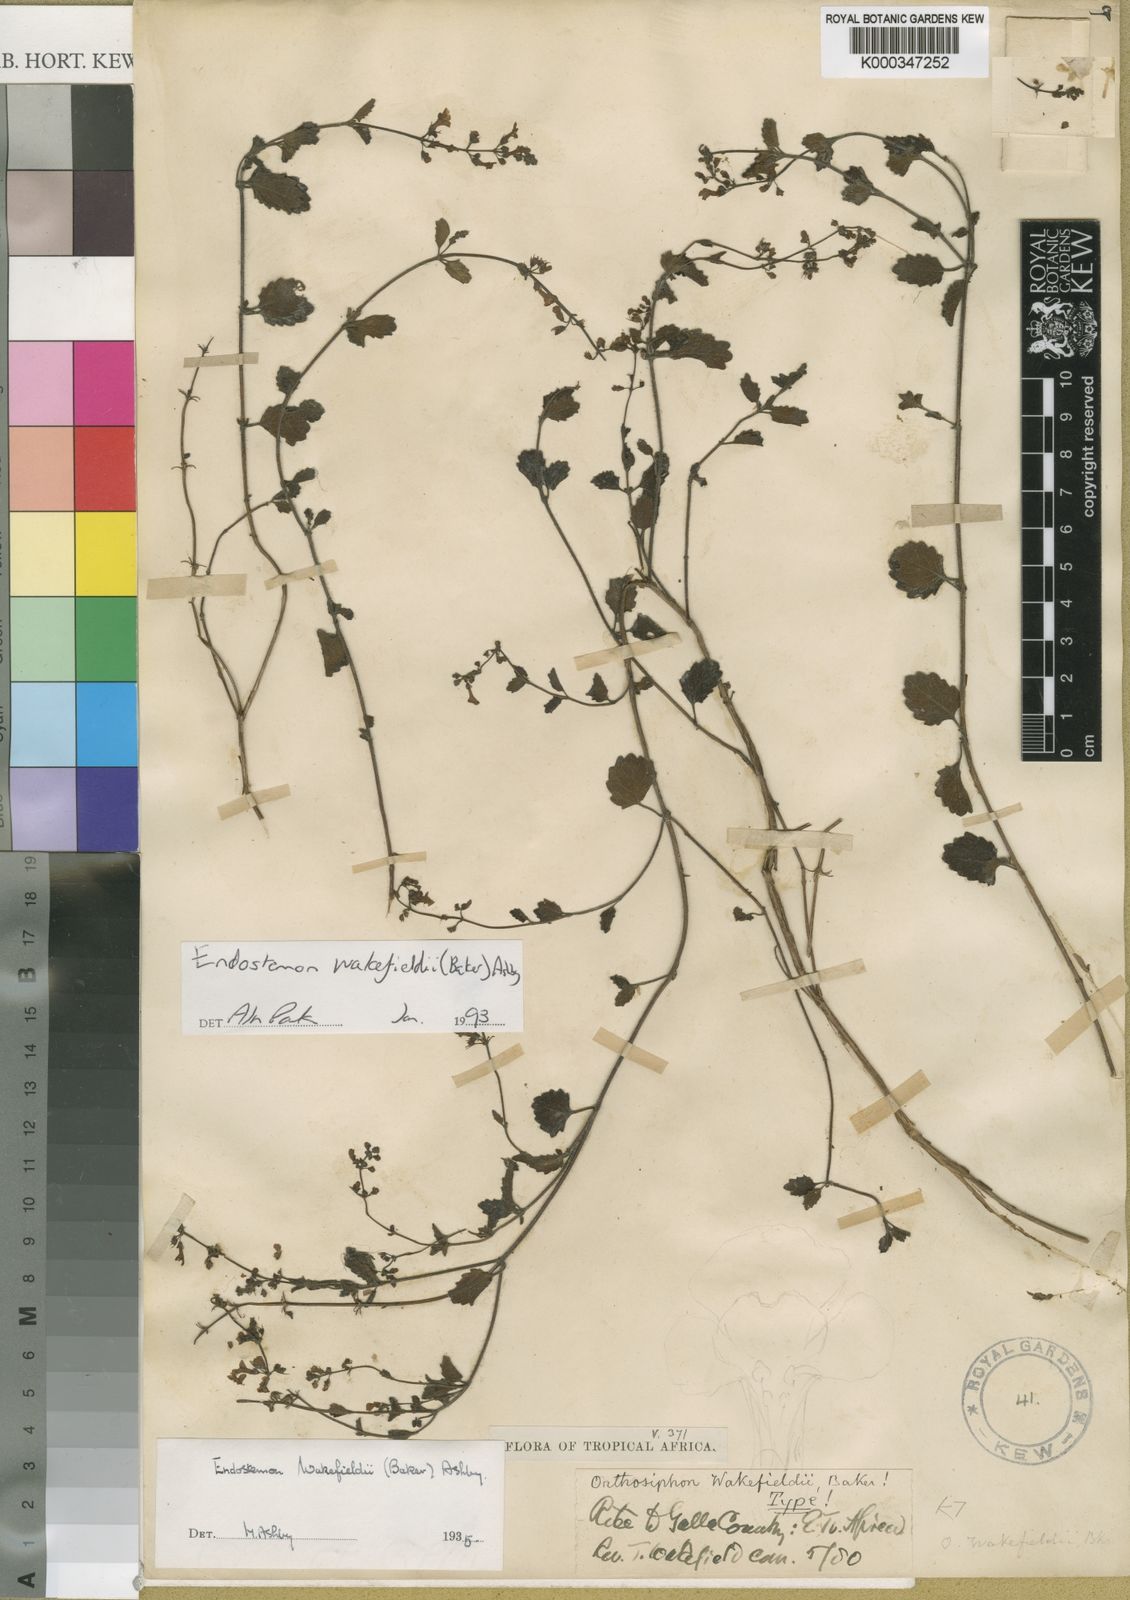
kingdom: Plantae
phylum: Tracheophyta
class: Magnoliopsida
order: Lamiales
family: Lamiaceae
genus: Endostemon
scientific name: Endostemon wakefieldii
